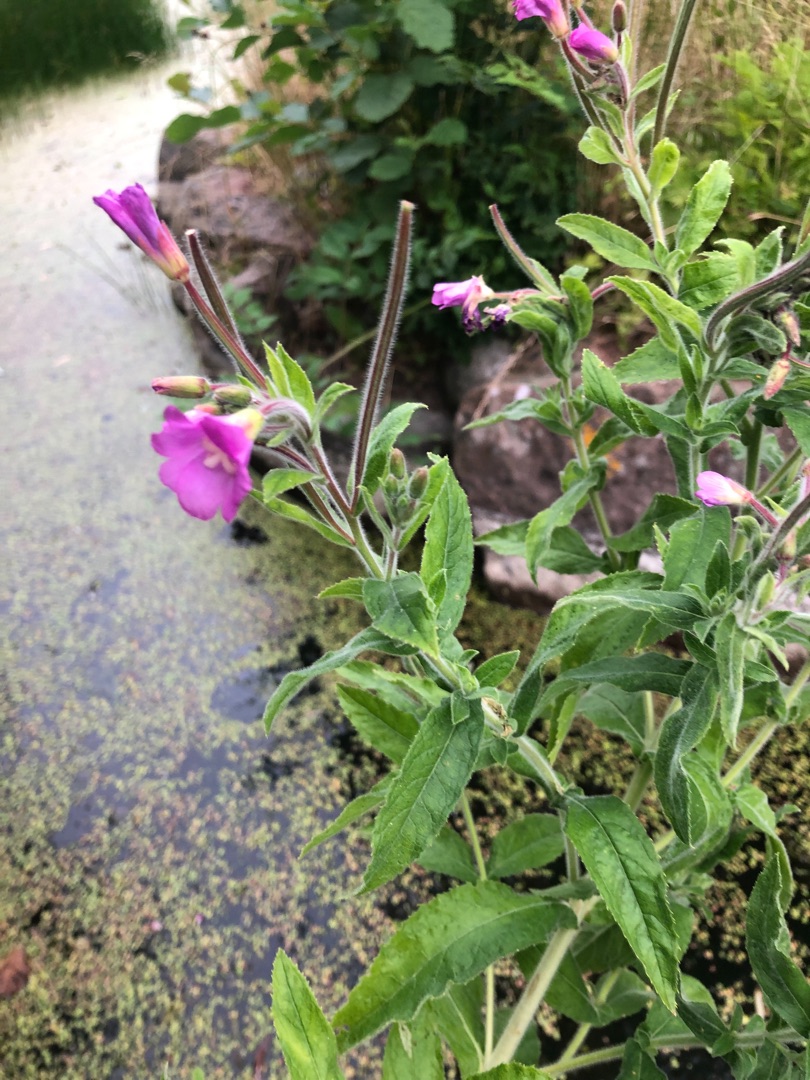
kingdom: Plantae
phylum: Tracheophyta
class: Magnoliopsida
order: Myrtales
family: Onagraceae
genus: Epilobium
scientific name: Epilobium hirsutum
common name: Lådden dueurt
